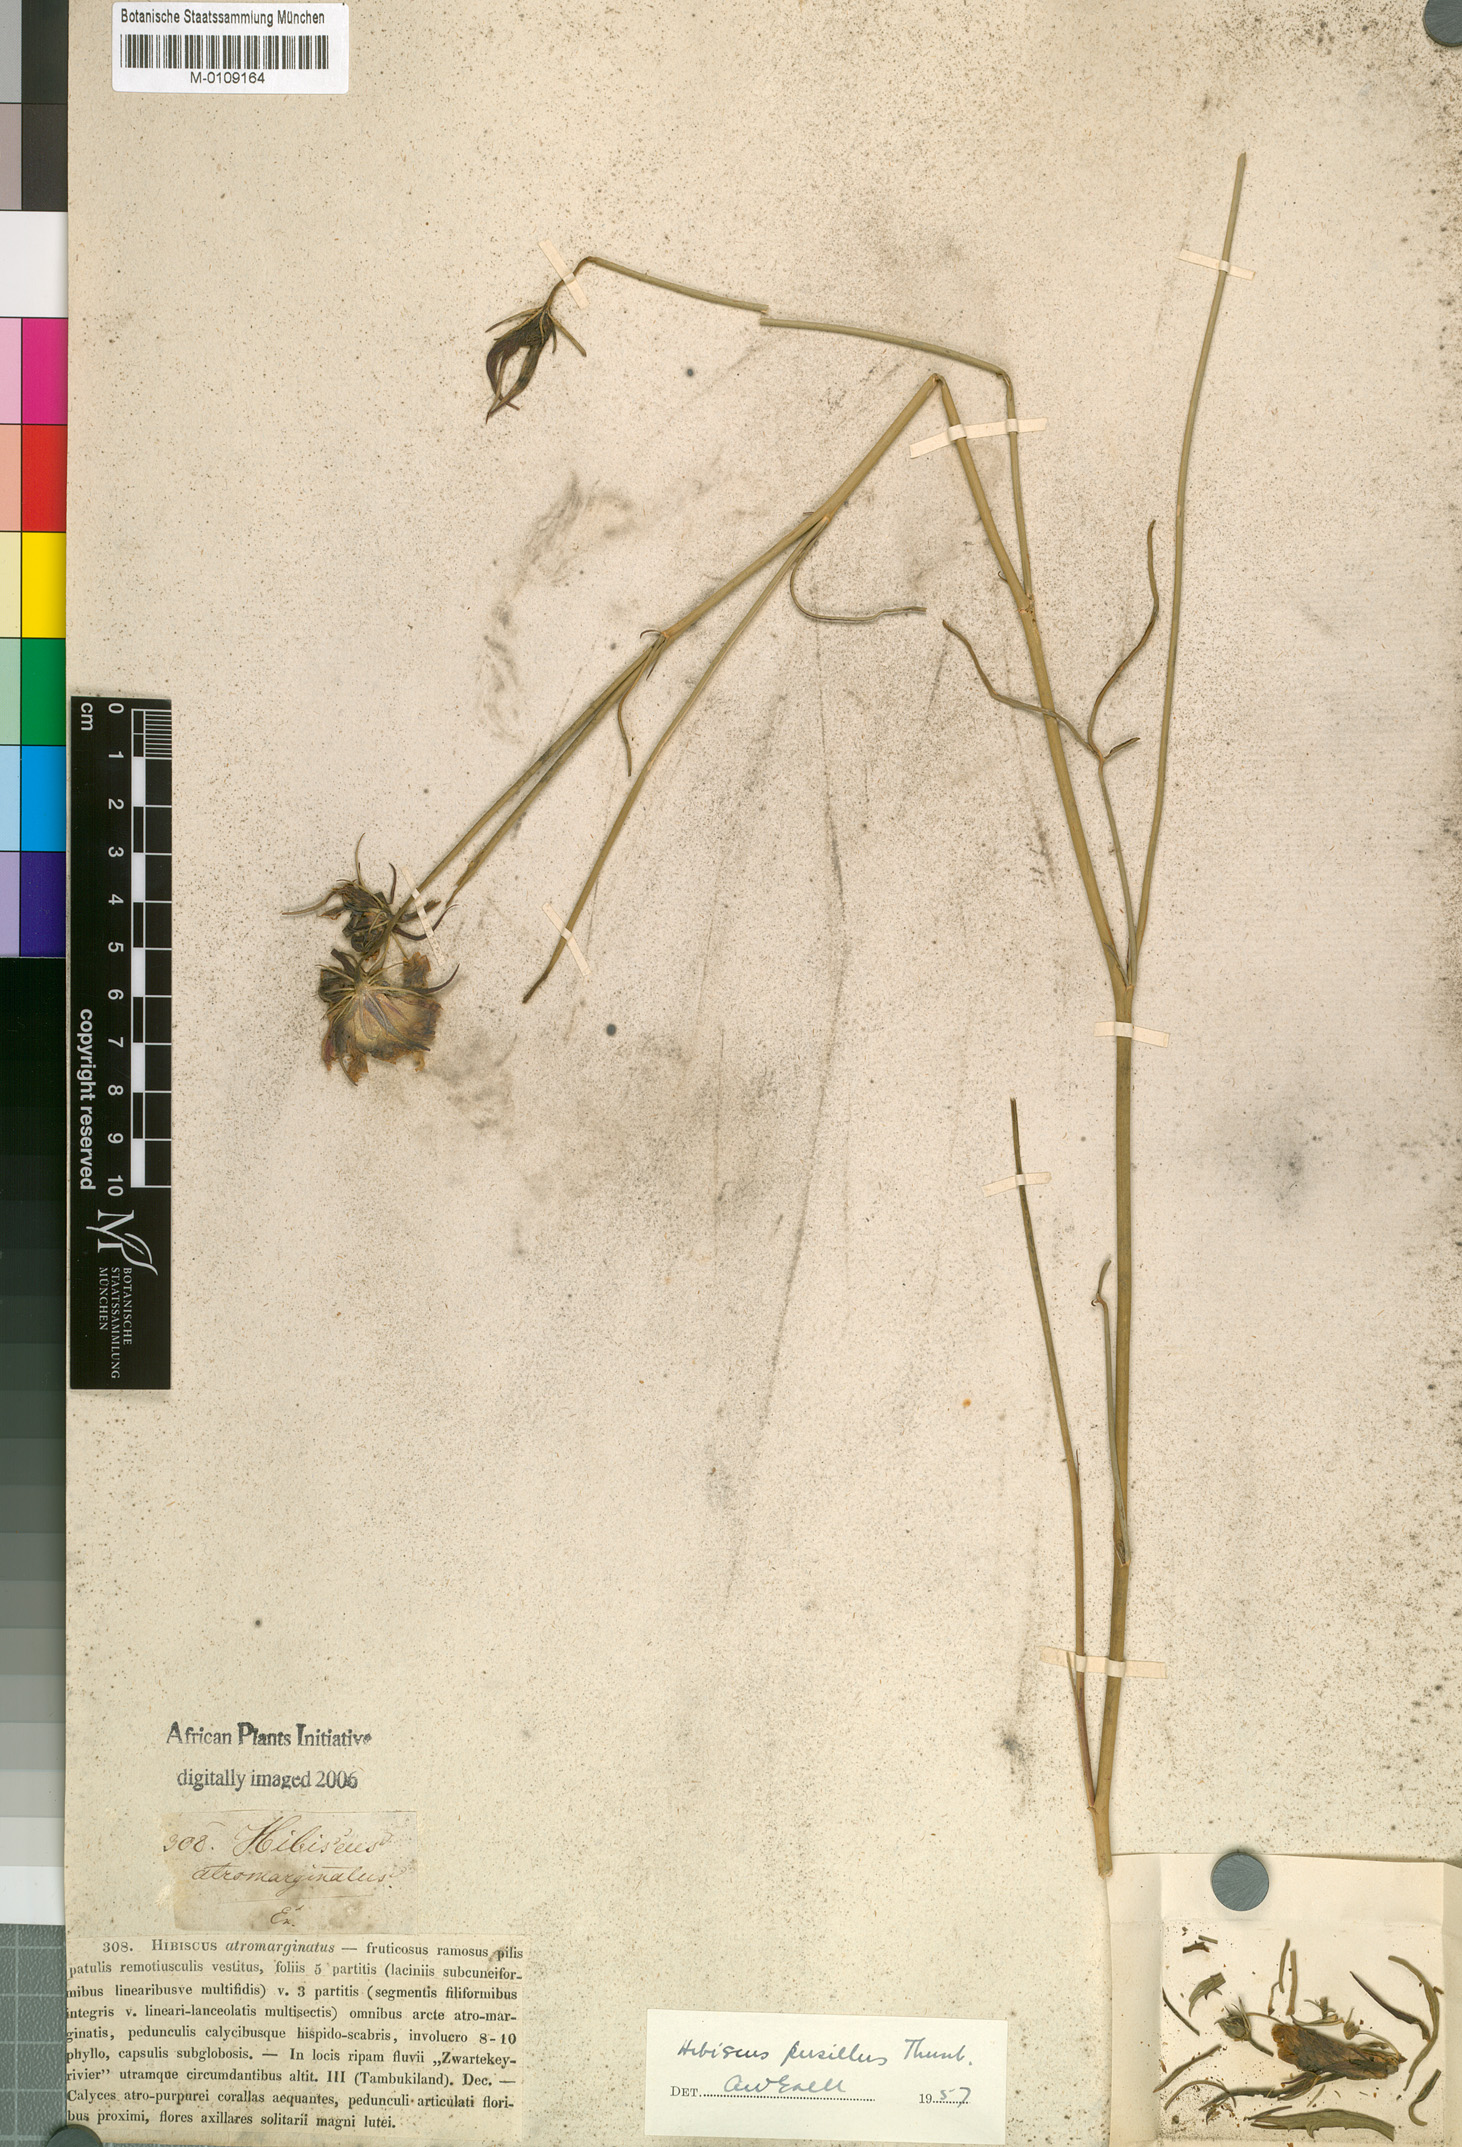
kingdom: Plantae
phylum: Tracheophyta
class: Magnoliopsida
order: Malvales
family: Malvaceae
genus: Hibiscus
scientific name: Hibiscus pusillus
